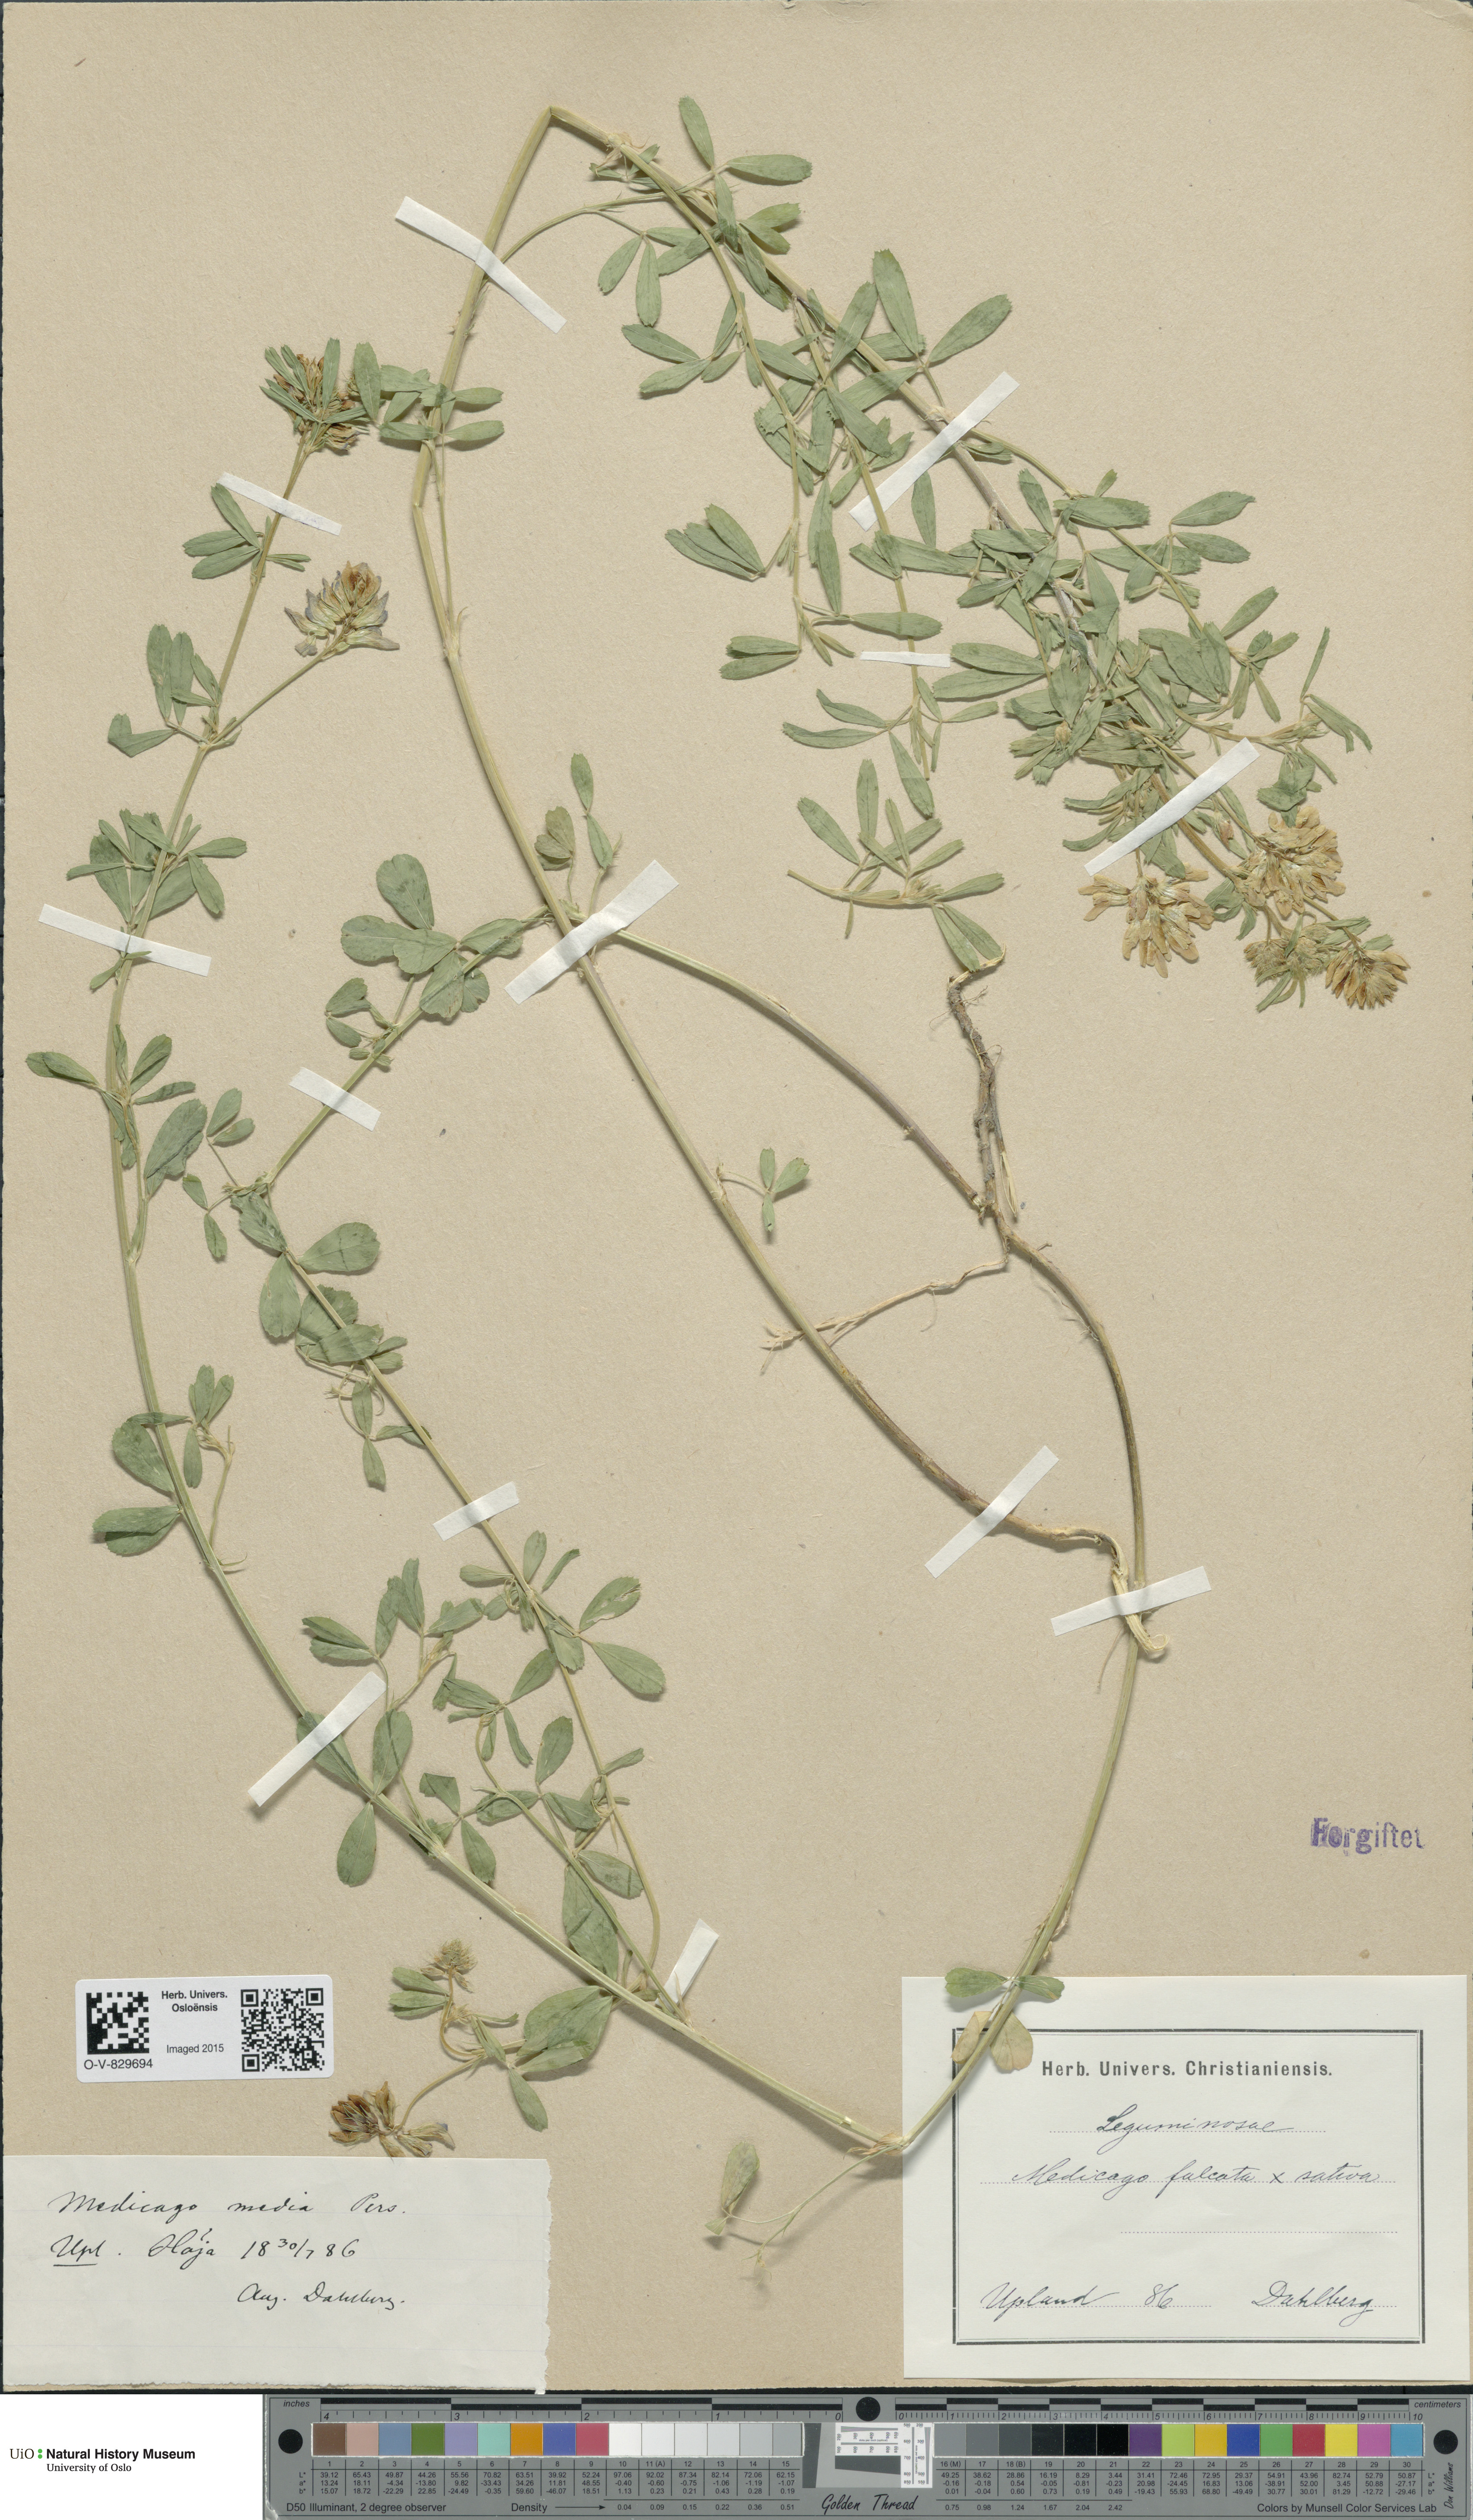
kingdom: Plantae
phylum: Tracheophyta
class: Magnoliopsida
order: Fabales
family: Fabaceae
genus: Medicago
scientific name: Medicago varia
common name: Sand lucerne
